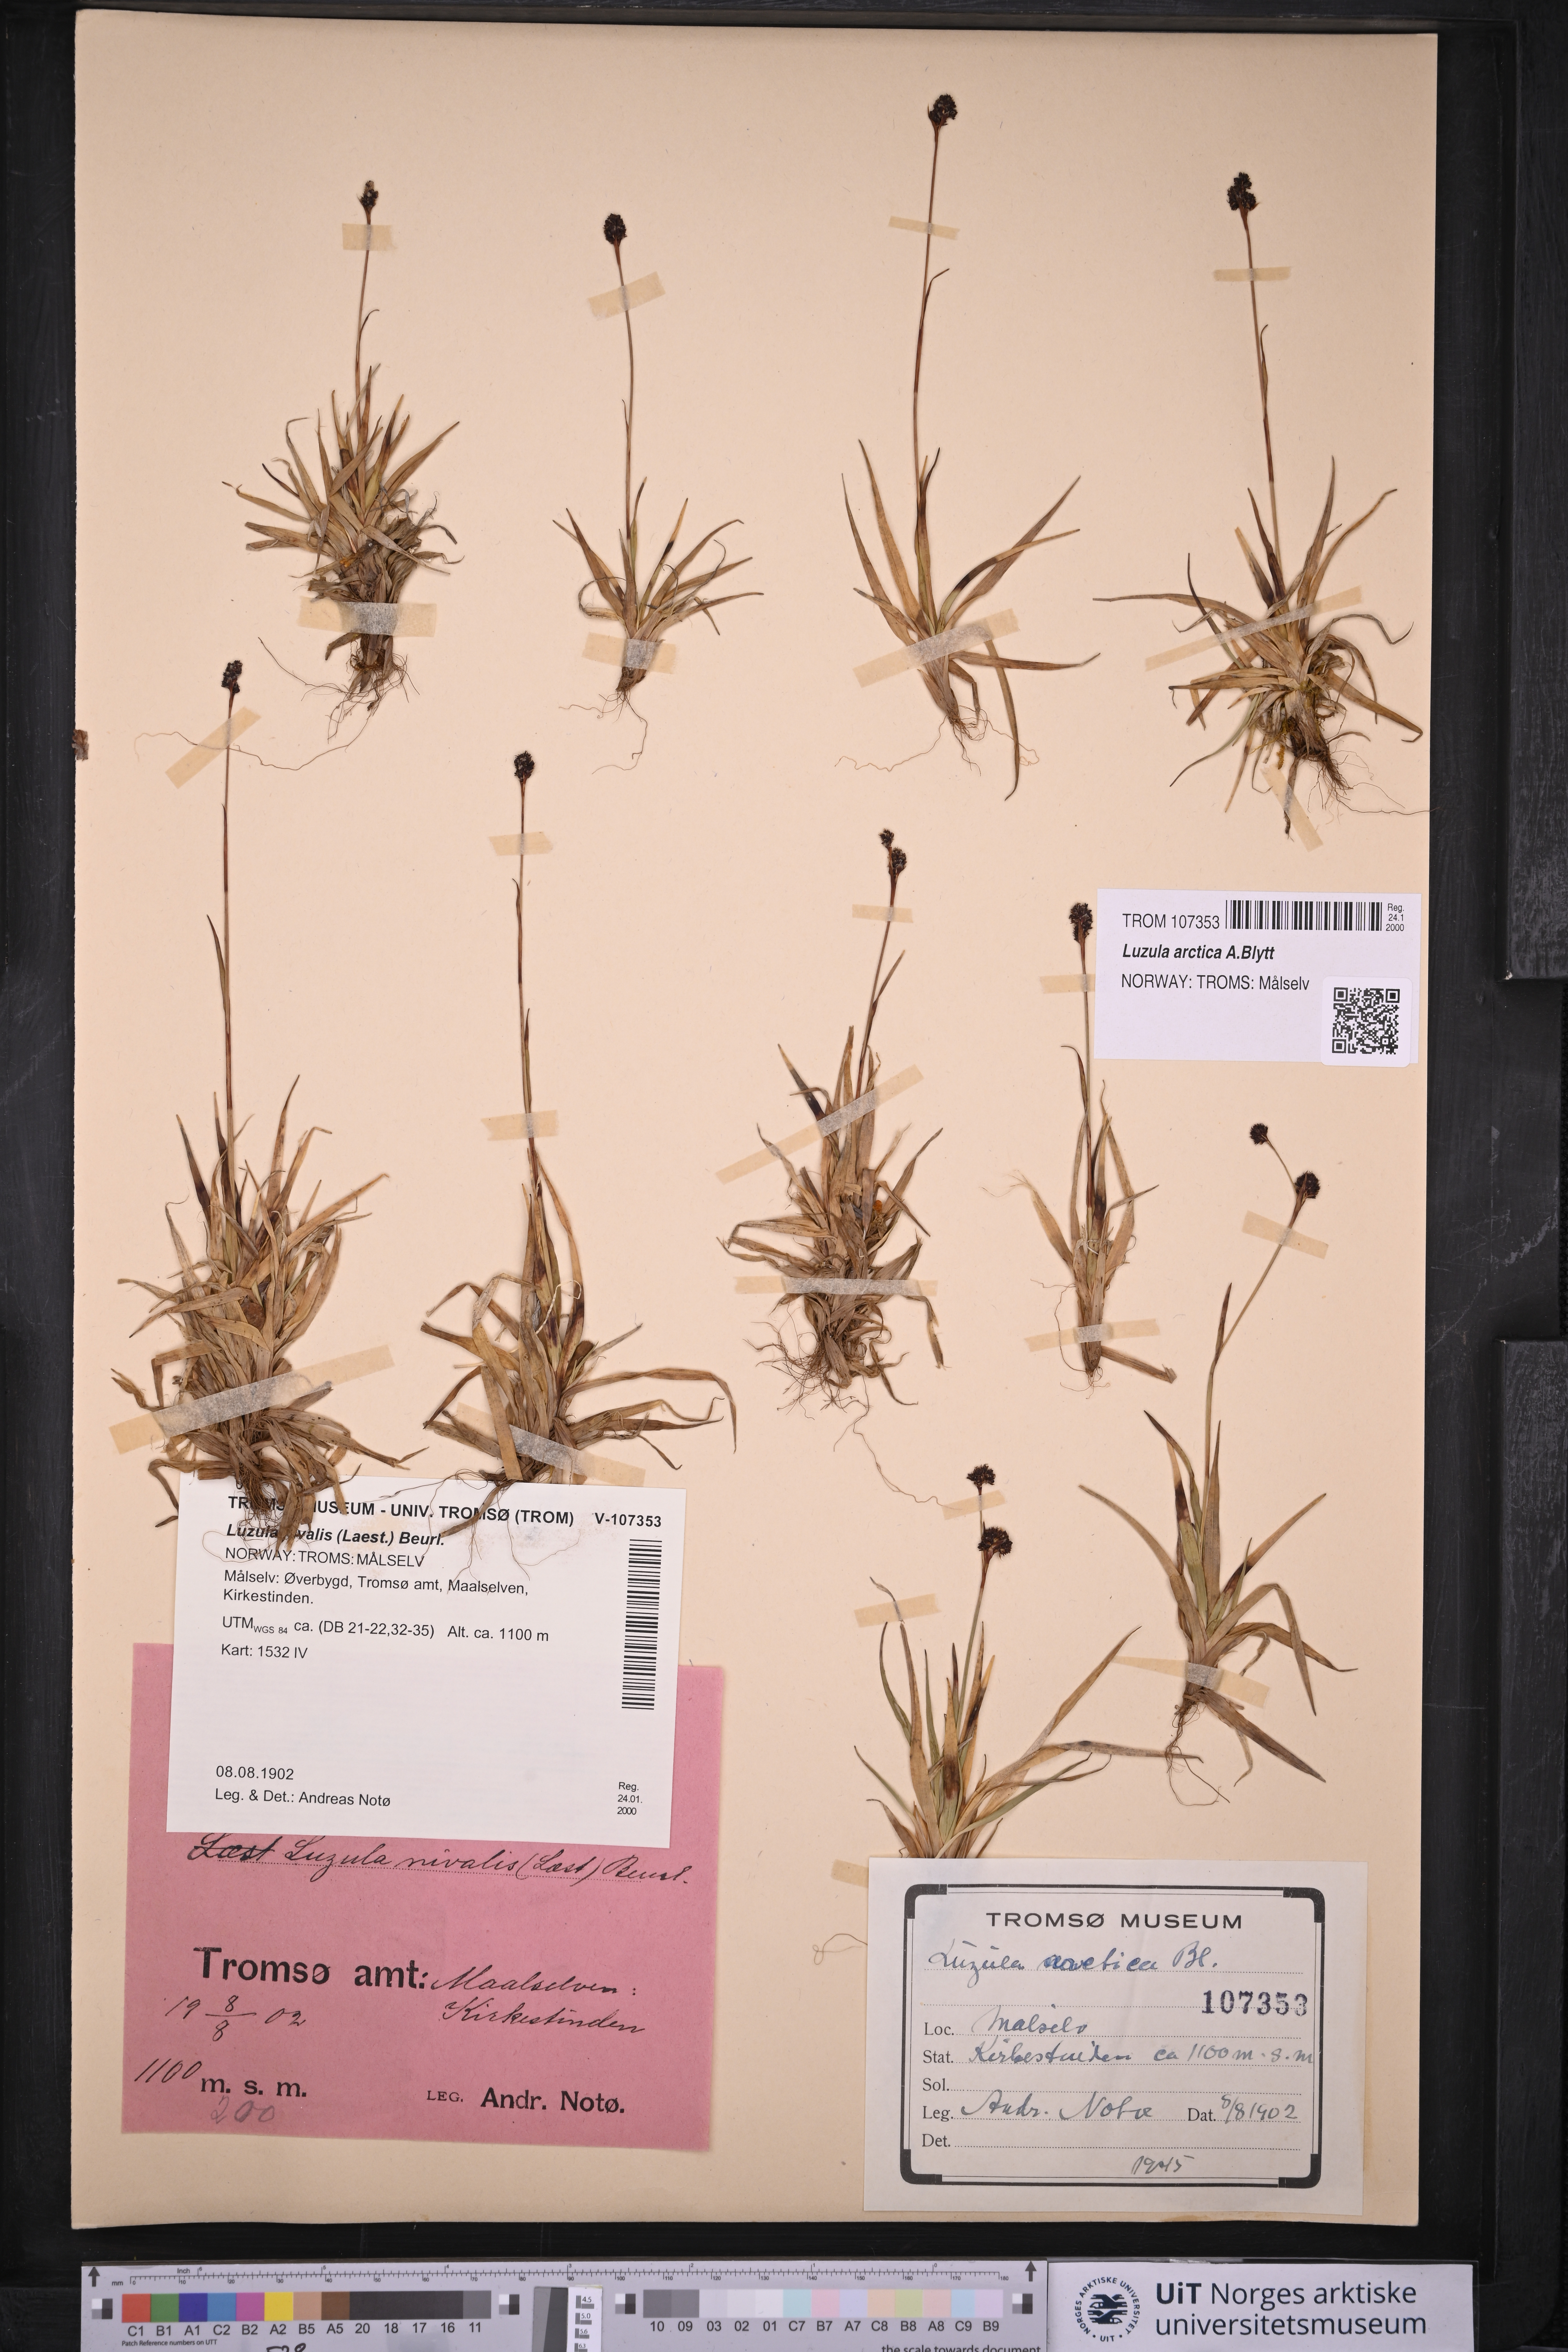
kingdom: Plantae
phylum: Tracheophyta
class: Liliopsida
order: Poales
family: Juncaceae
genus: Luzula
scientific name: Luzula nivalis
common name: Arctic woodrush
